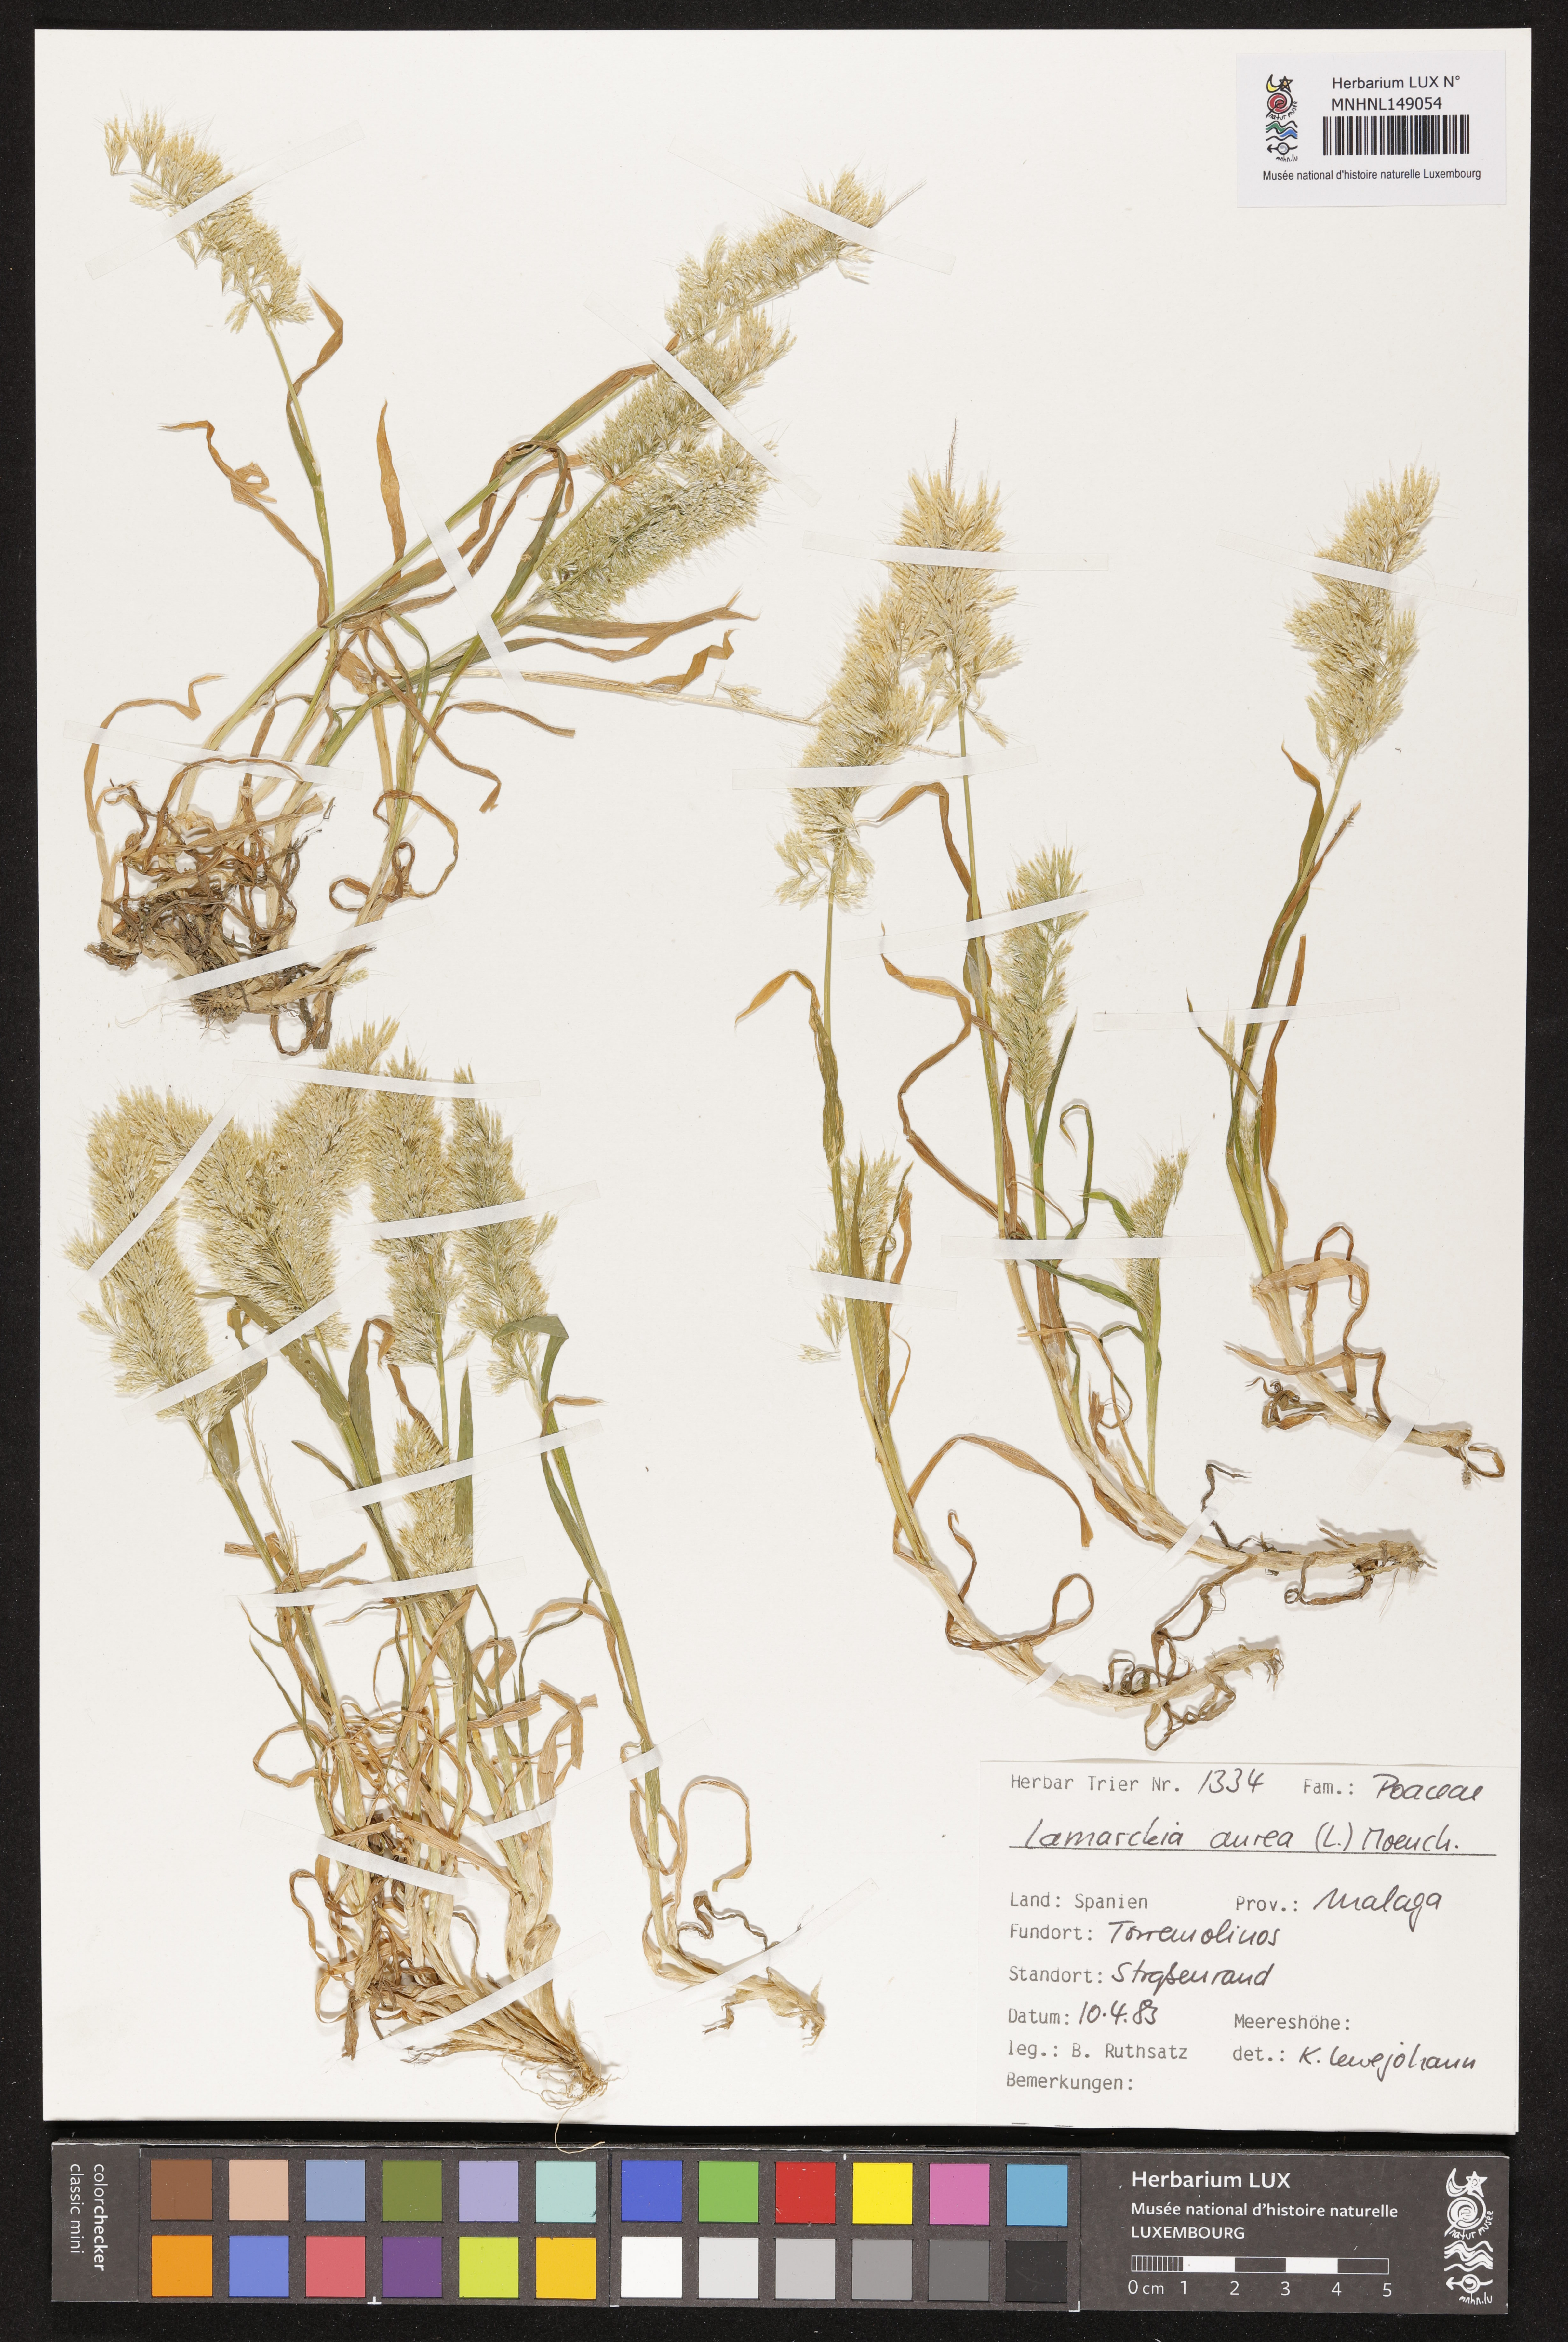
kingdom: Plantae
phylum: Tracheophyta
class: Liliopsida
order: Poales
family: Poaceae
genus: Lamarckia
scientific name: Lamarckia aurea
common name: Golden dog's-tail
